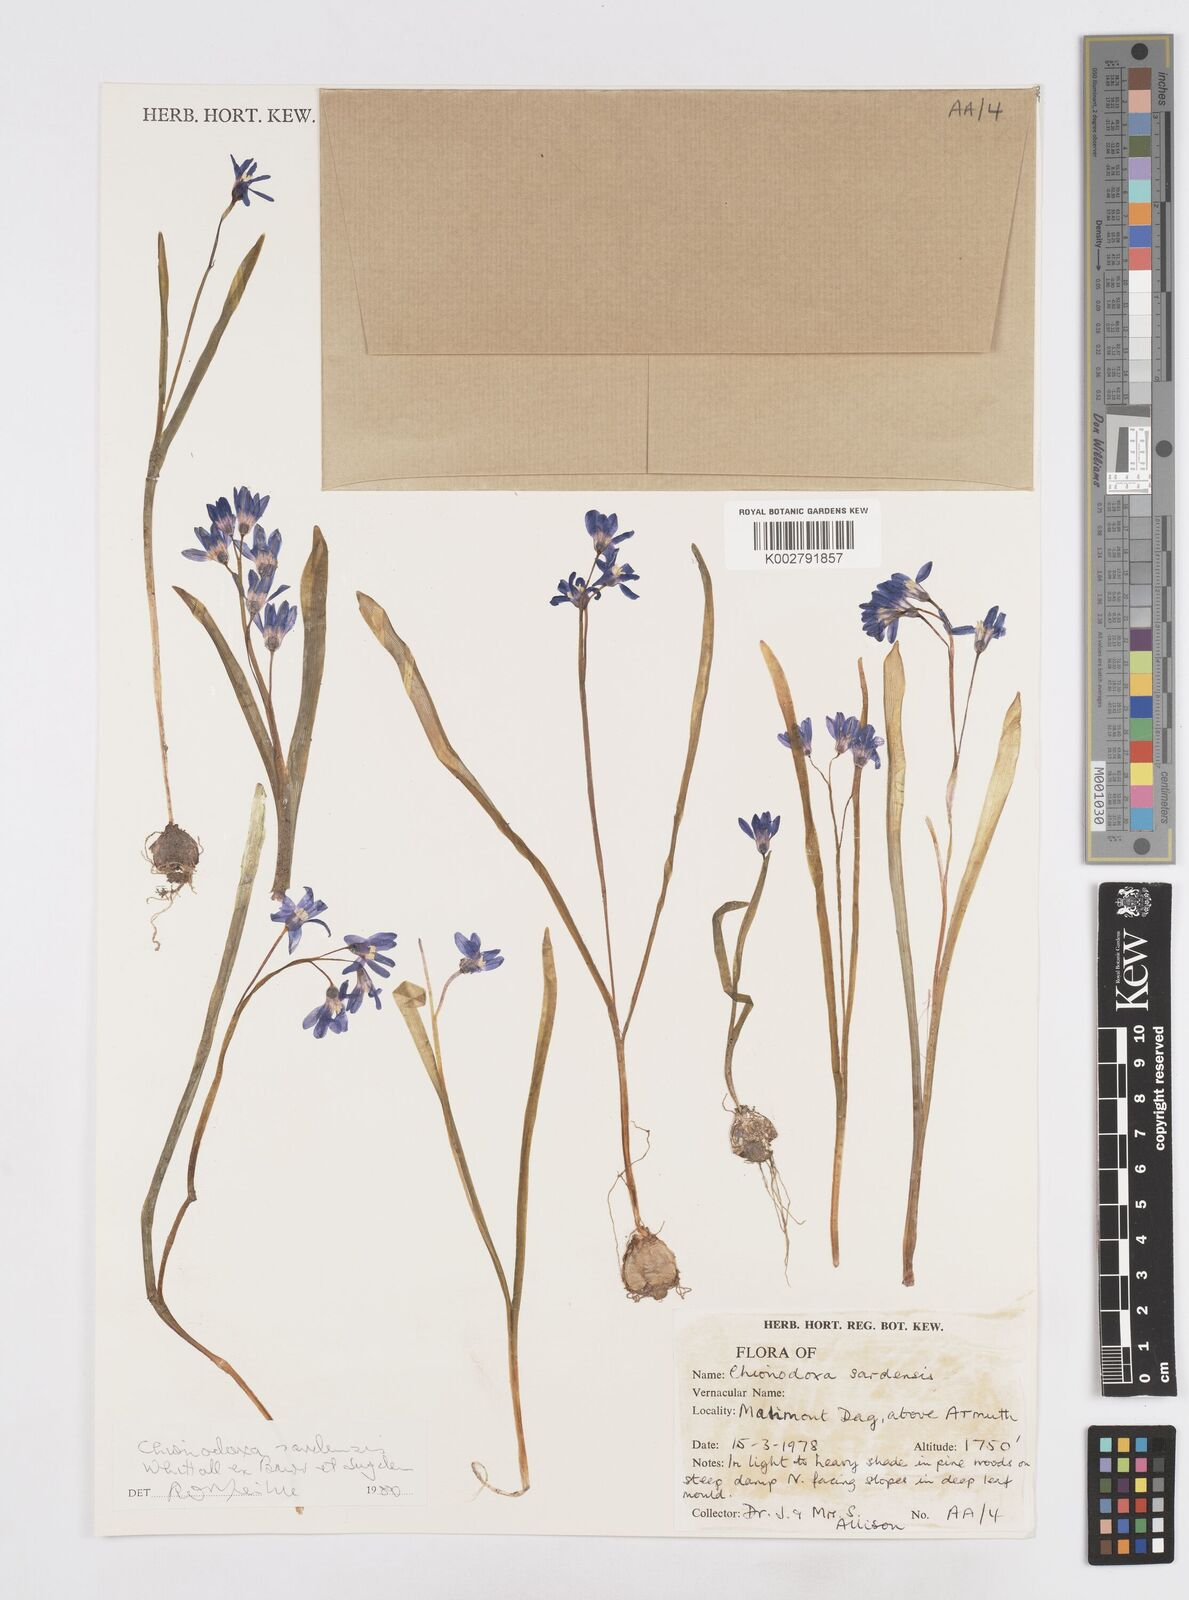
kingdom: Plantae
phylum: Tracheophyta
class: Liliopsida
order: Asparagales
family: Asparagaceae
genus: Scilla
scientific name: Scilla sardensis
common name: Lesser glory-of-the-snow
